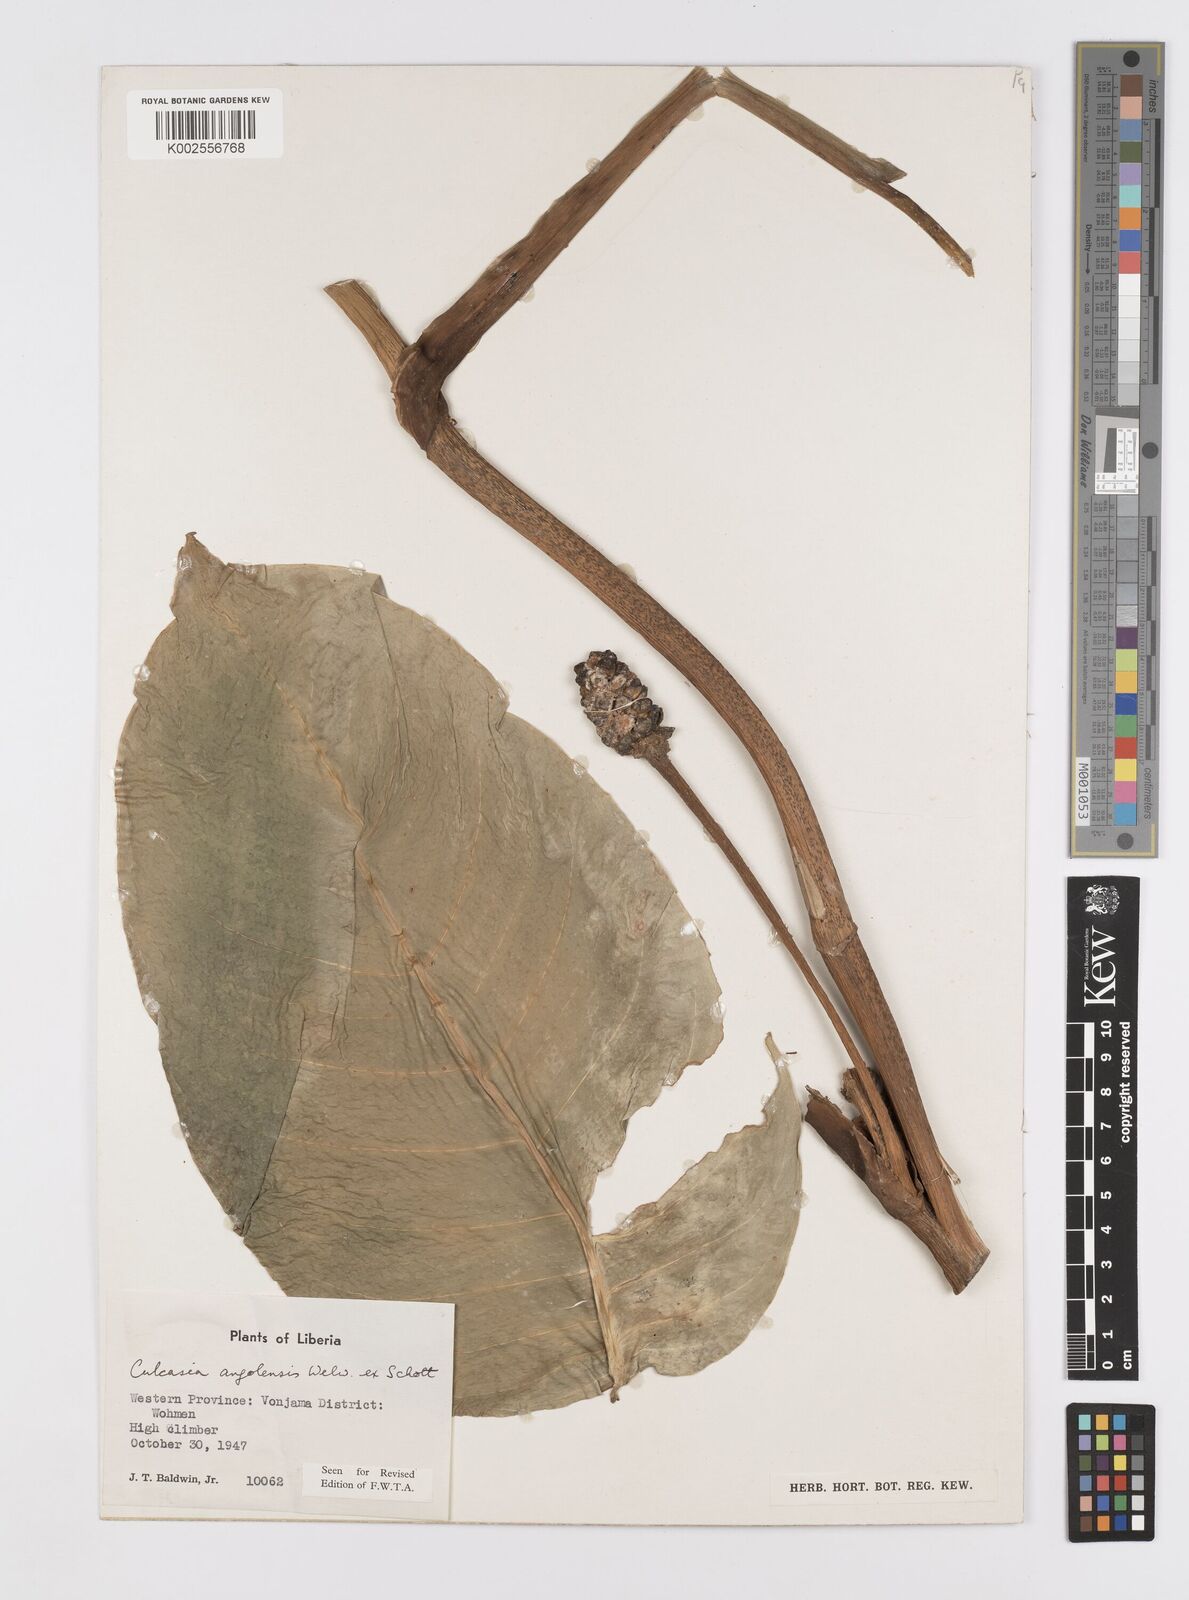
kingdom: Plantae
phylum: Tracheophyta
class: Liliopsida
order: Alismatales
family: Araceae
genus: Culcasia
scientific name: Culcasia angolensis
